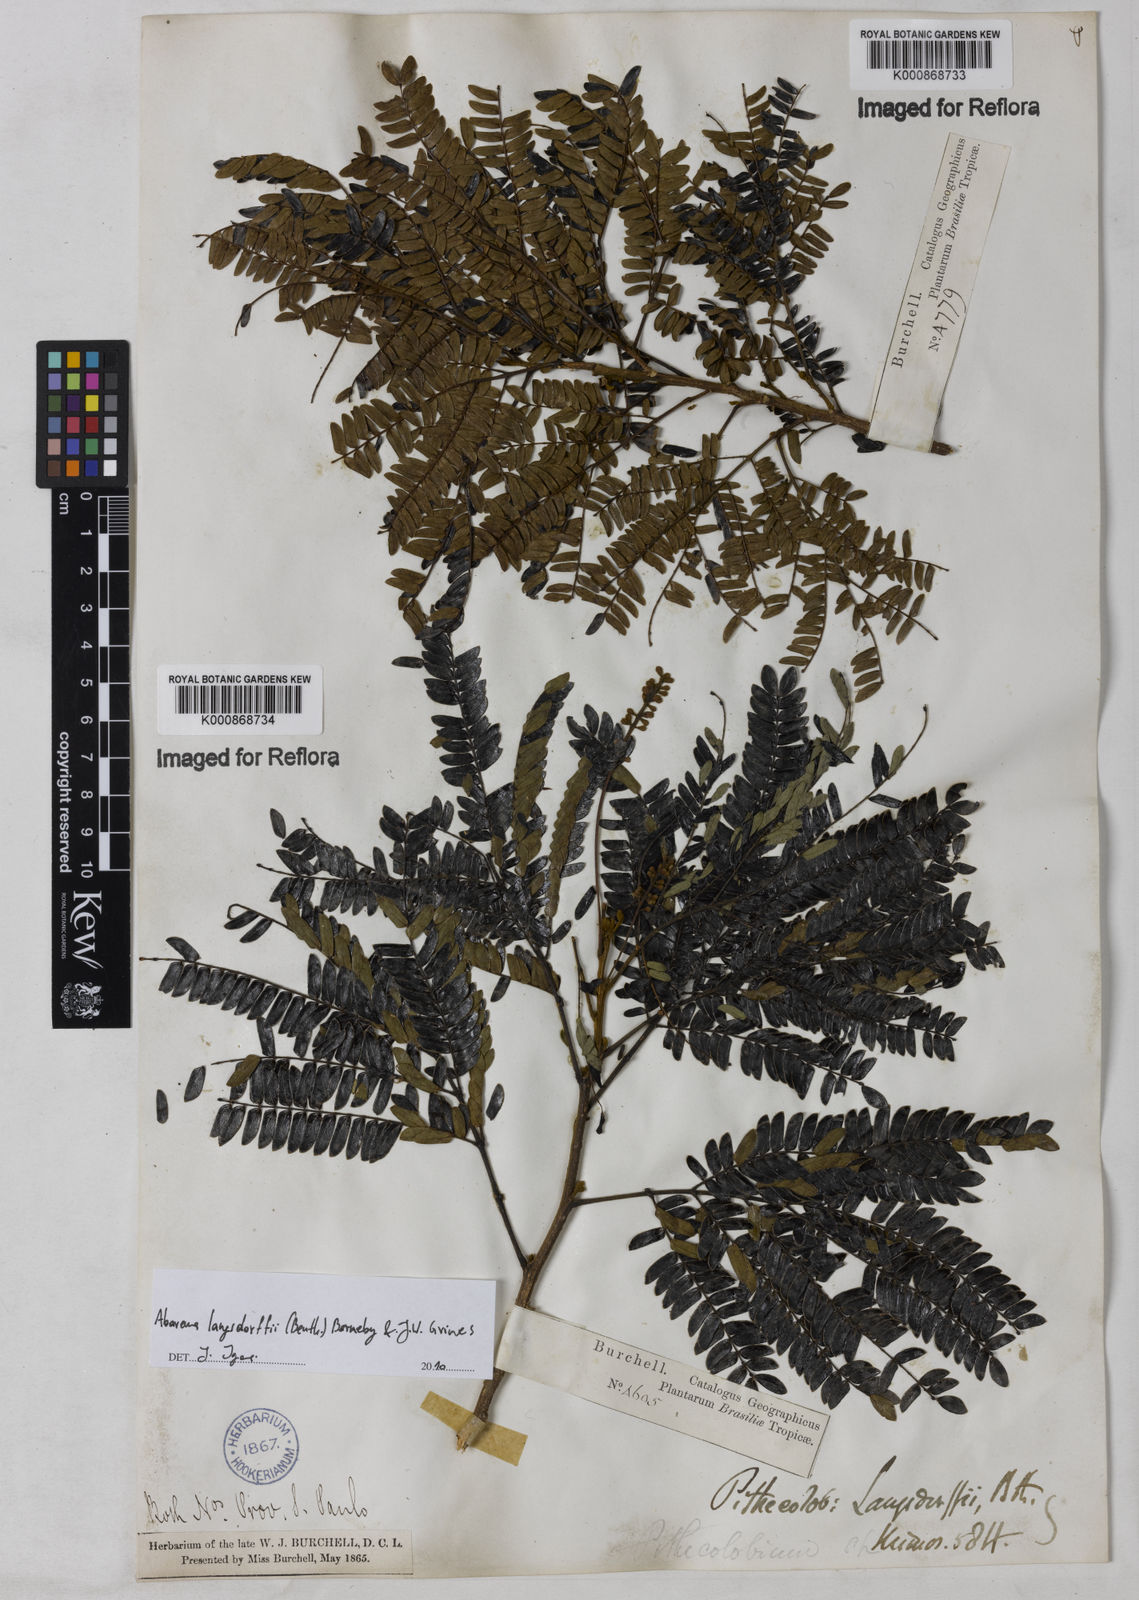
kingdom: Plantae
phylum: Tracheophyta
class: Magnoliopsida
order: Fabales
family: Fabaceae
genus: Jupunba
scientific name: Jupunba langsdorffii
